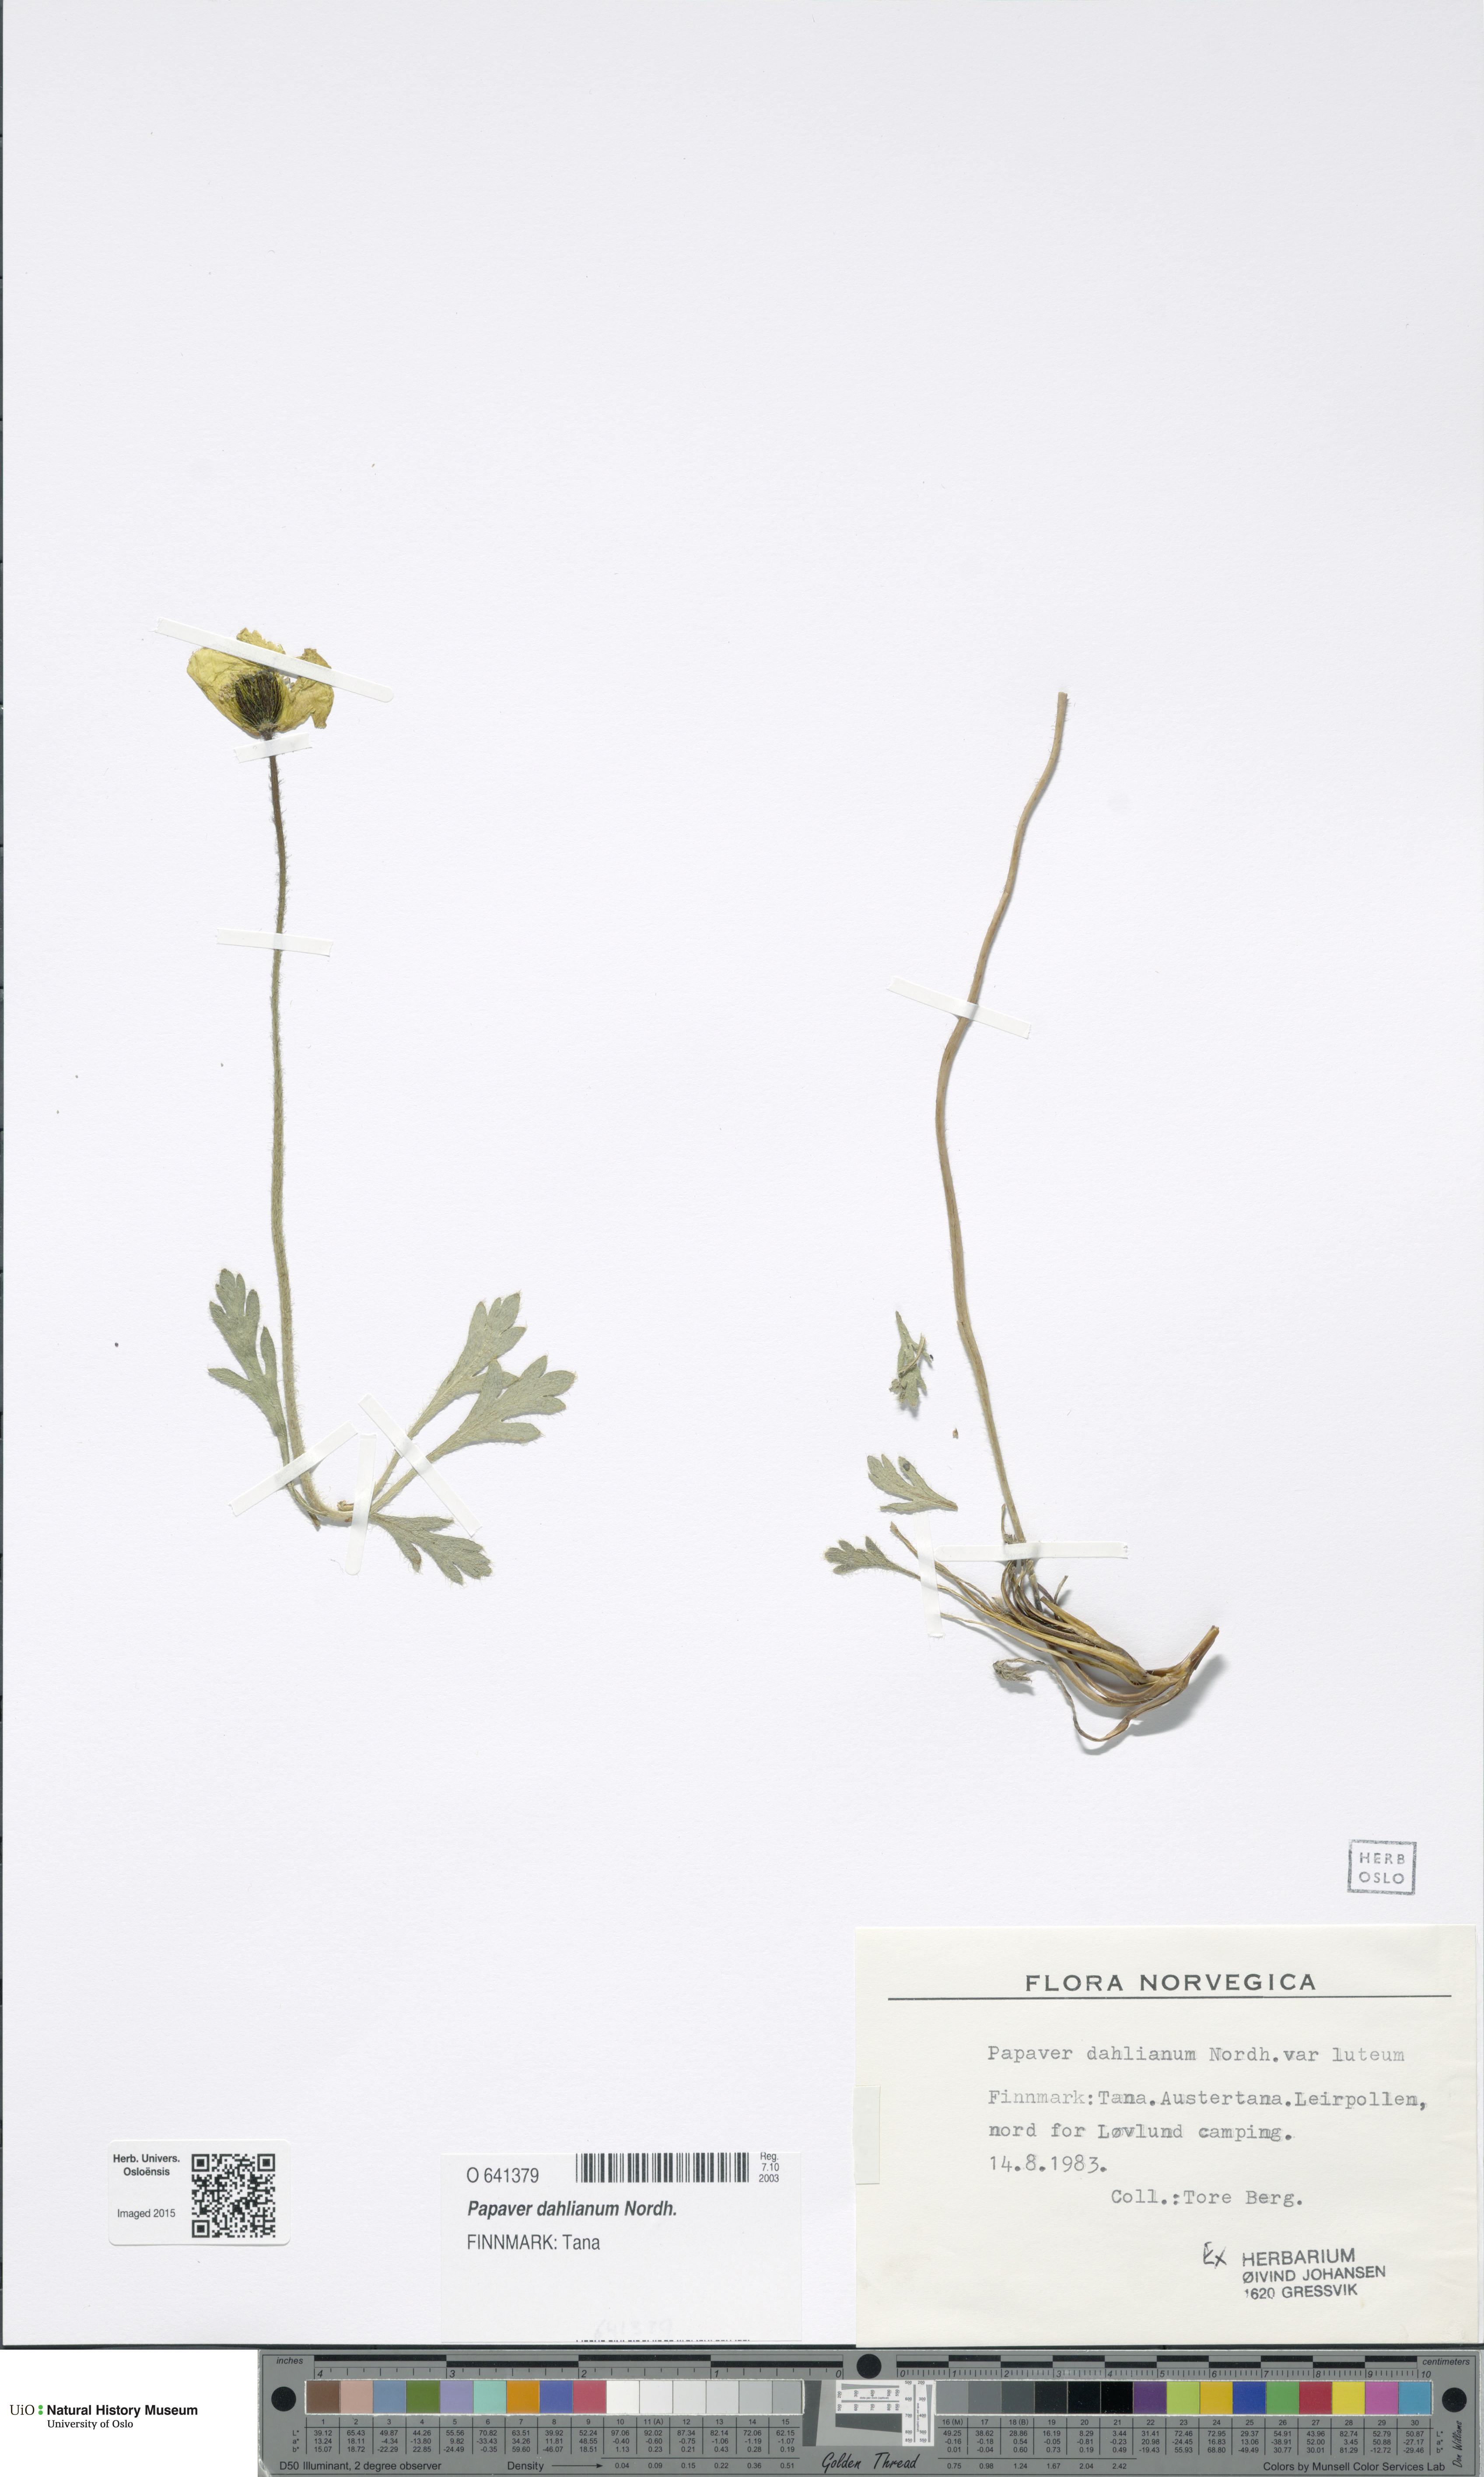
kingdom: Plantae
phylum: Tracheophyta
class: Magnoliopsida
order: Ranunculales
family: Papaveraceae
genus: Papaver
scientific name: Papaver radicatum
